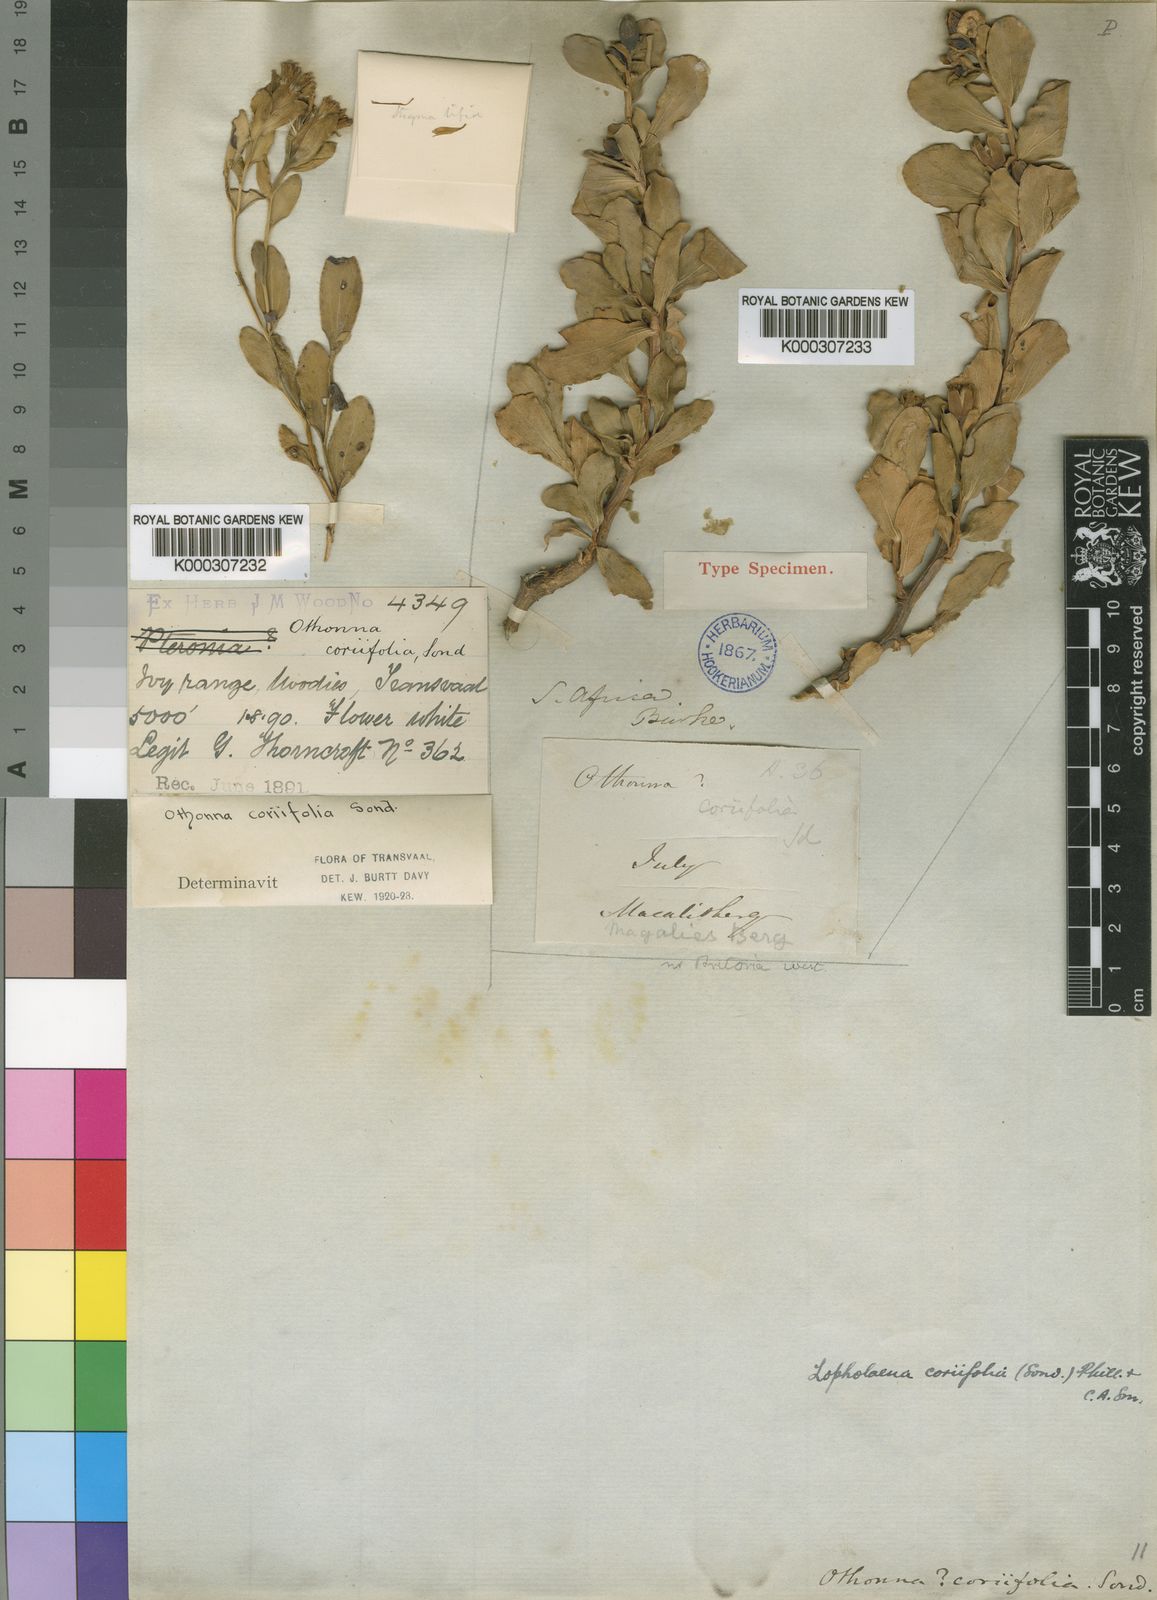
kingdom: Plantae
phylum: Tracheophyta
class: Magnoliopsida
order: Asterales
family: Asteraceae
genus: Lopholaena
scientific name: Lopholaena coriifolia
